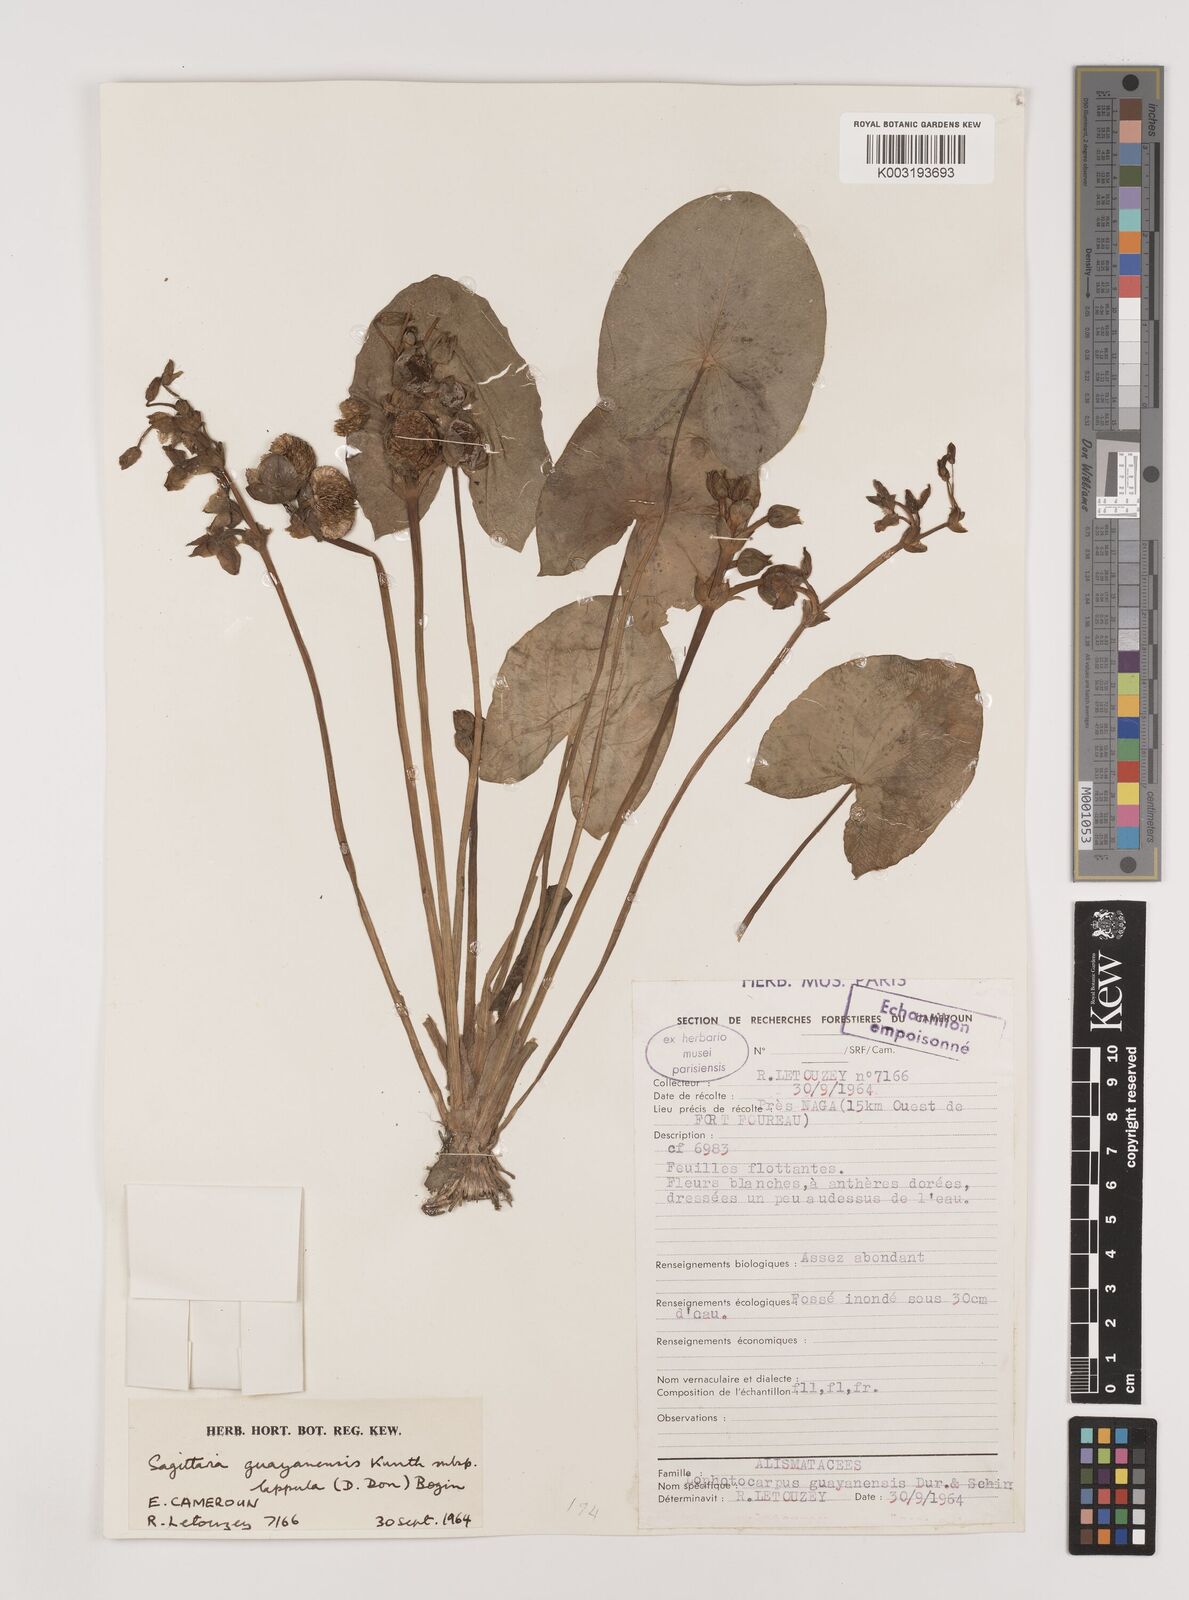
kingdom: Plantae
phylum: Tracheophyta
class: Liliopsida
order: Alismatales
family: Alismataceae
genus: Sagittaria
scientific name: Sagittaria guayanensis
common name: Guyanese arrowhead
